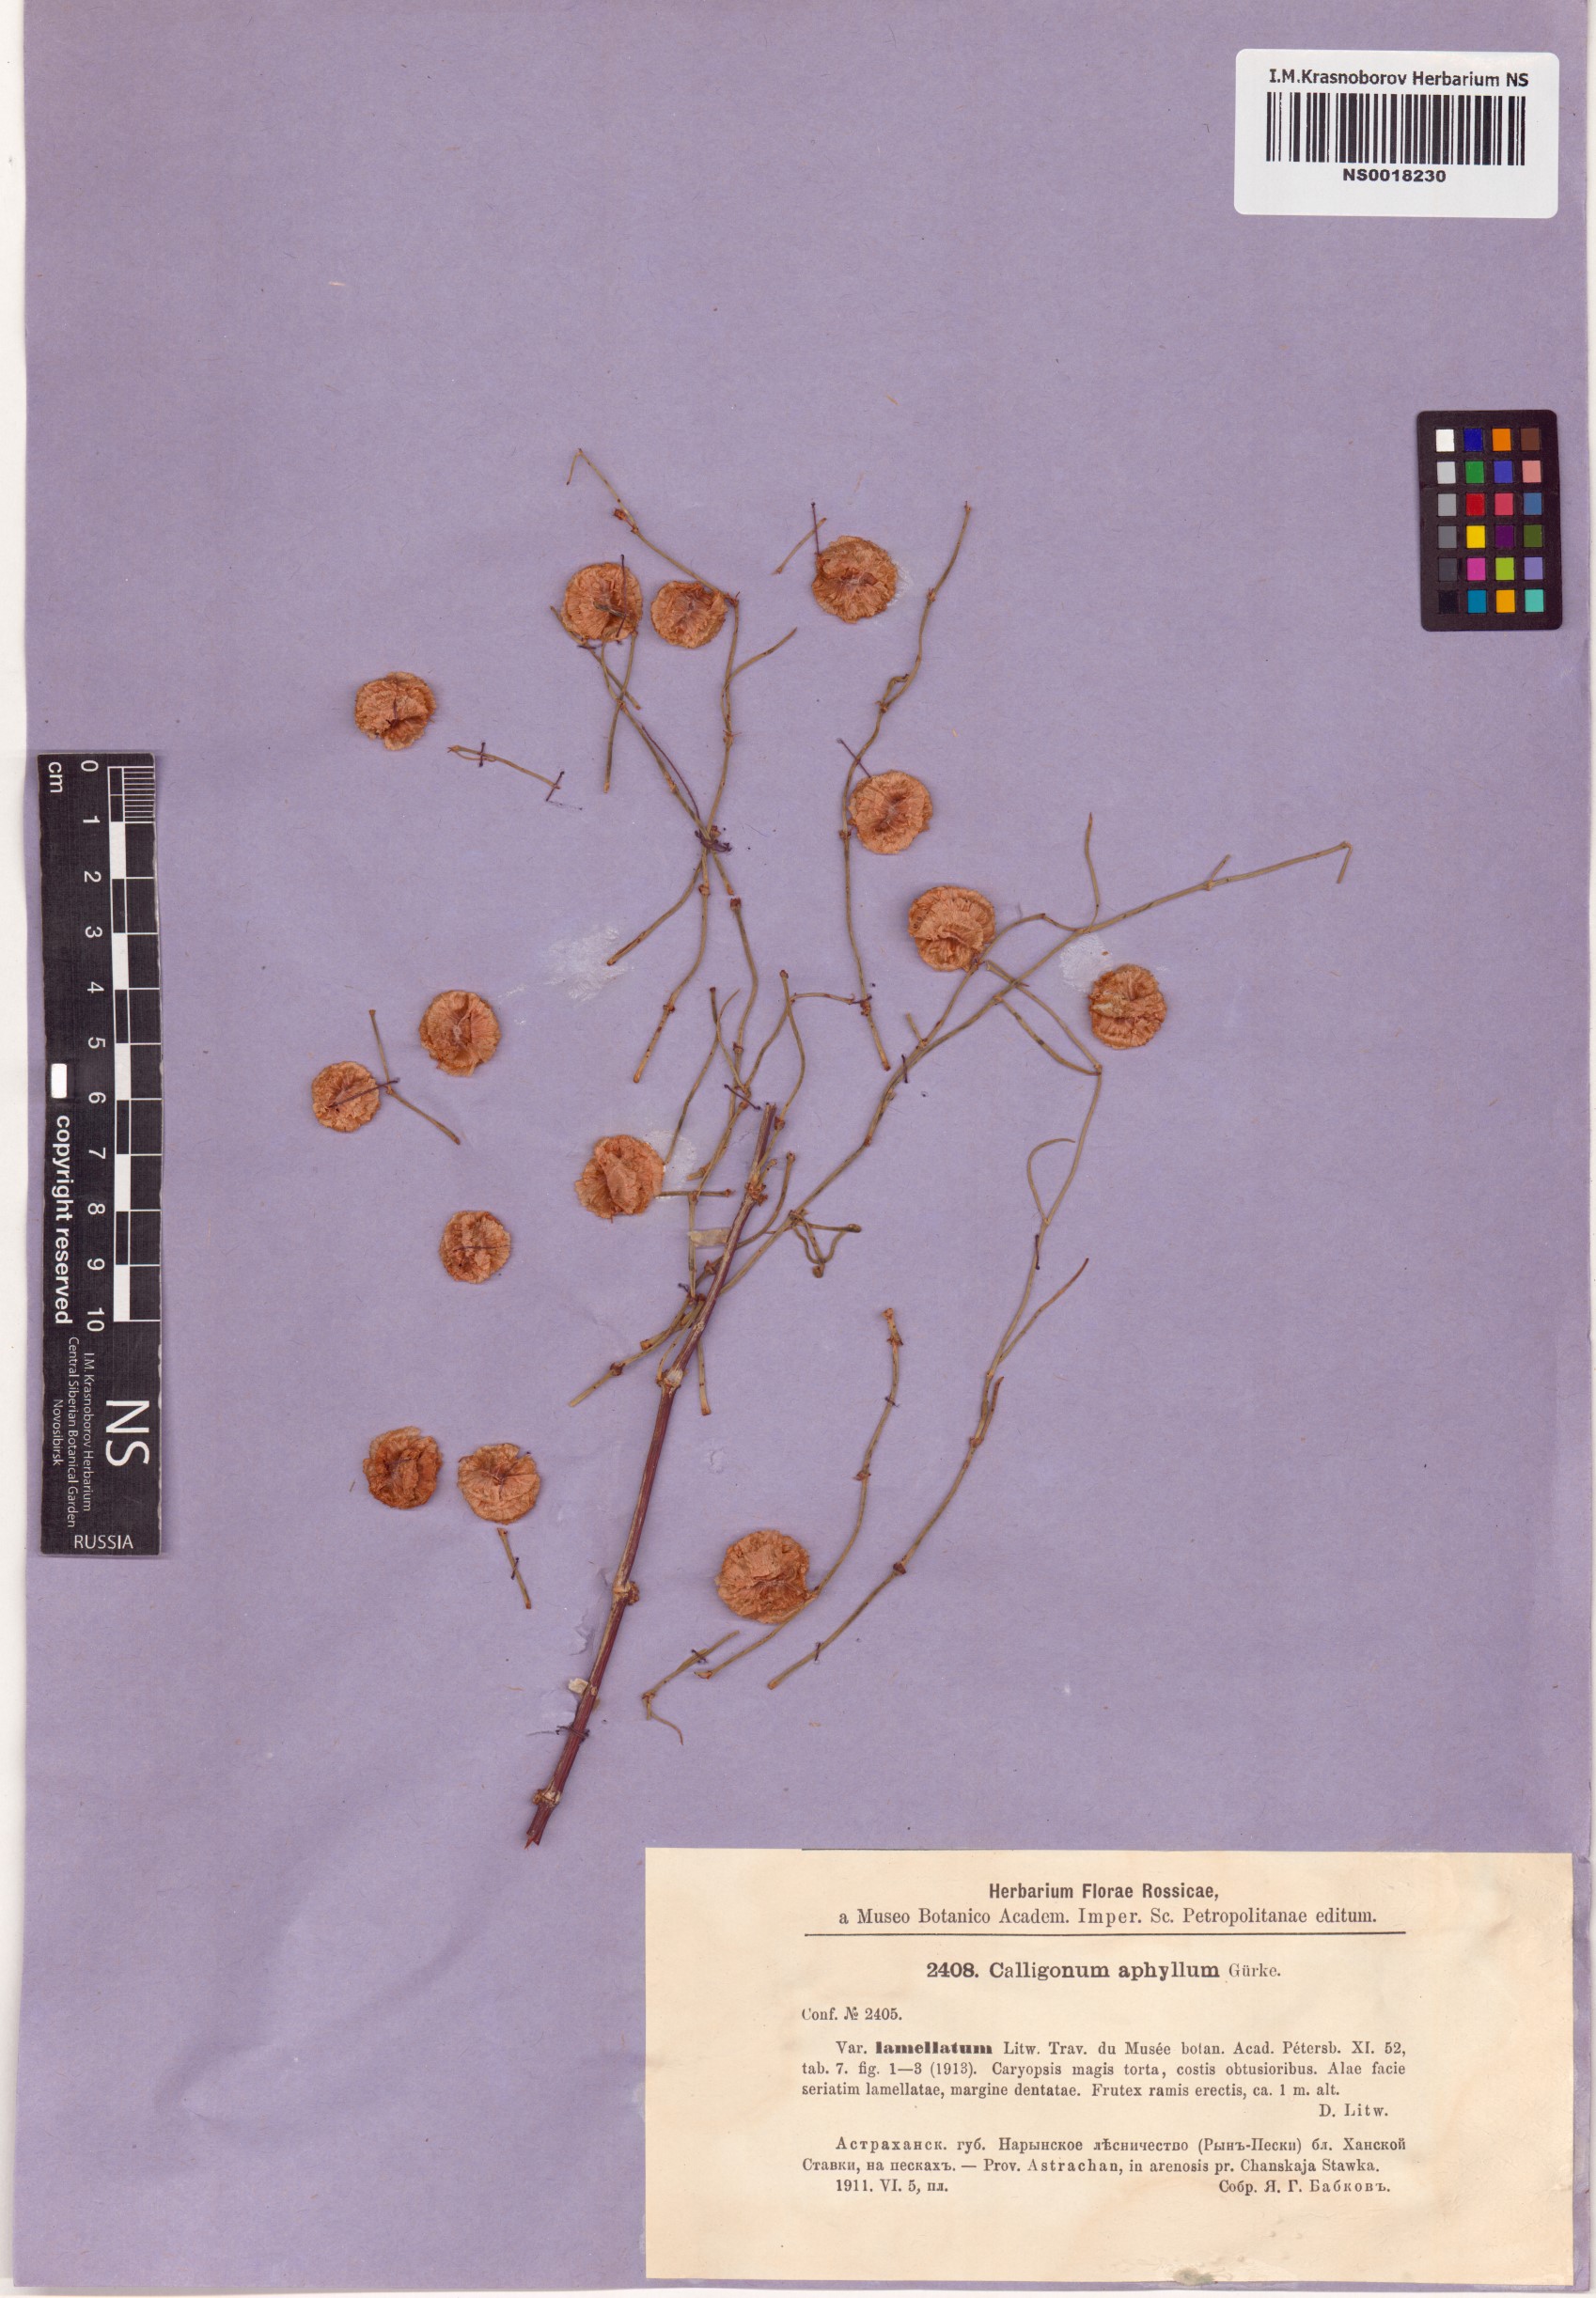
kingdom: Plantae
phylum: Tracheophyta
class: Magnoliopsida
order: Caryophyllales
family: Polygonaceae
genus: Calligonum
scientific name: Calligonum aphyllum
